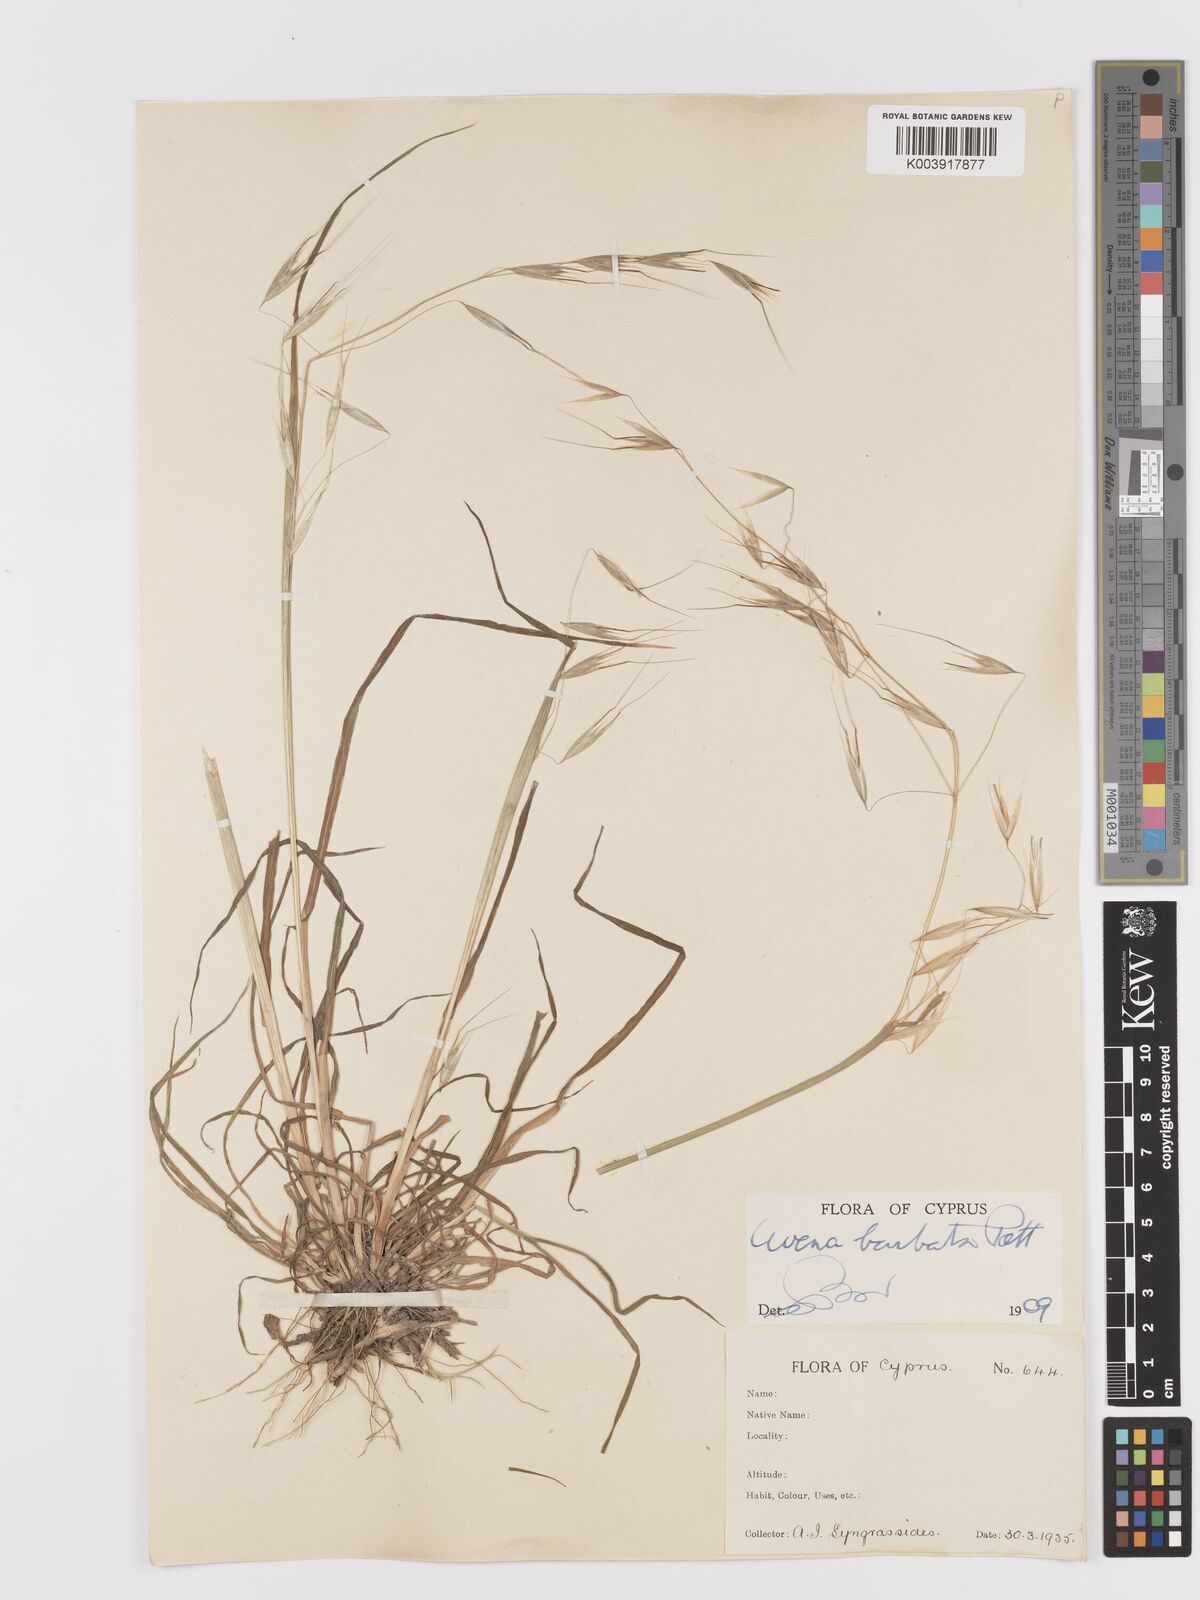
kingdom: Plantae
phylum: Tracheophyta
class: Liliopsida
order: Poales
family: Poaceae
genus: Avena
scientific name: Avena
